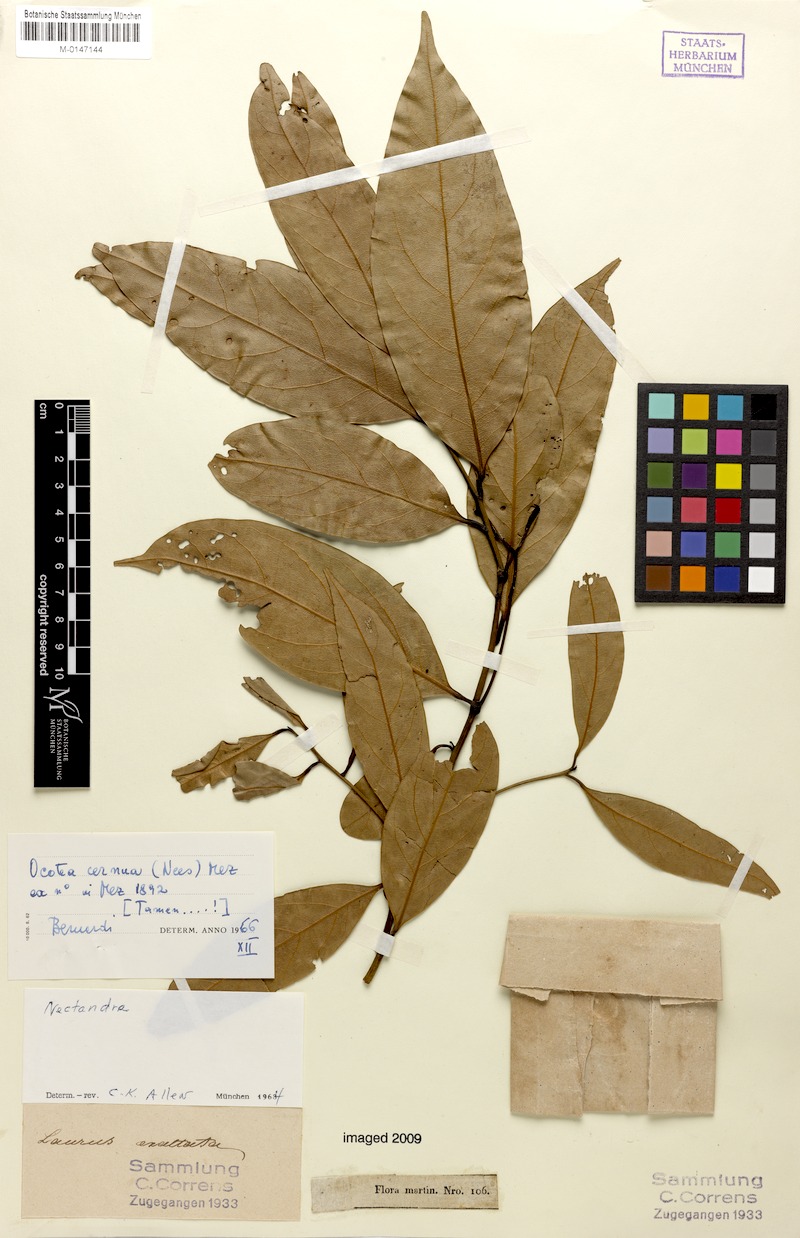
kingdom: Plantae
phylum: Tracheophyta
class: Magnoliopsida
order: Laurales
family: Lauraceae
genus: Ocotea
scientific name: Ocotea leptobotra
